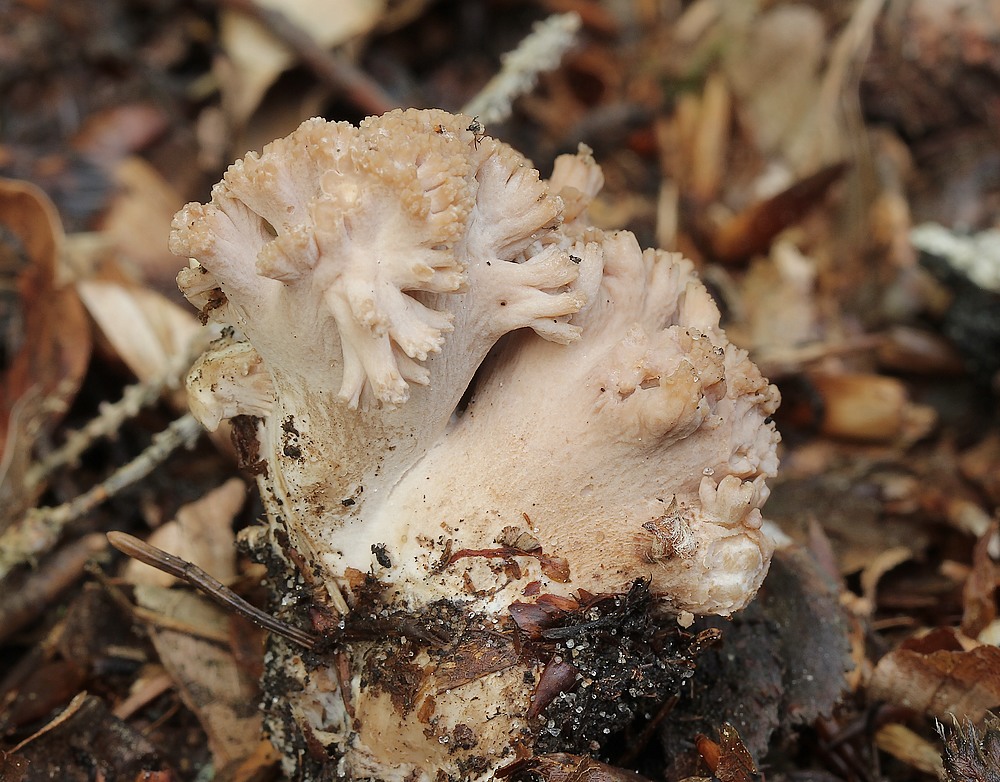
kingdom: Fungi
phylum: Basidiomycota
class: Agaricomycetes
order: Gomphales
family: Gomphaceae
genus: Ramaria
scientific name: Ramaria
